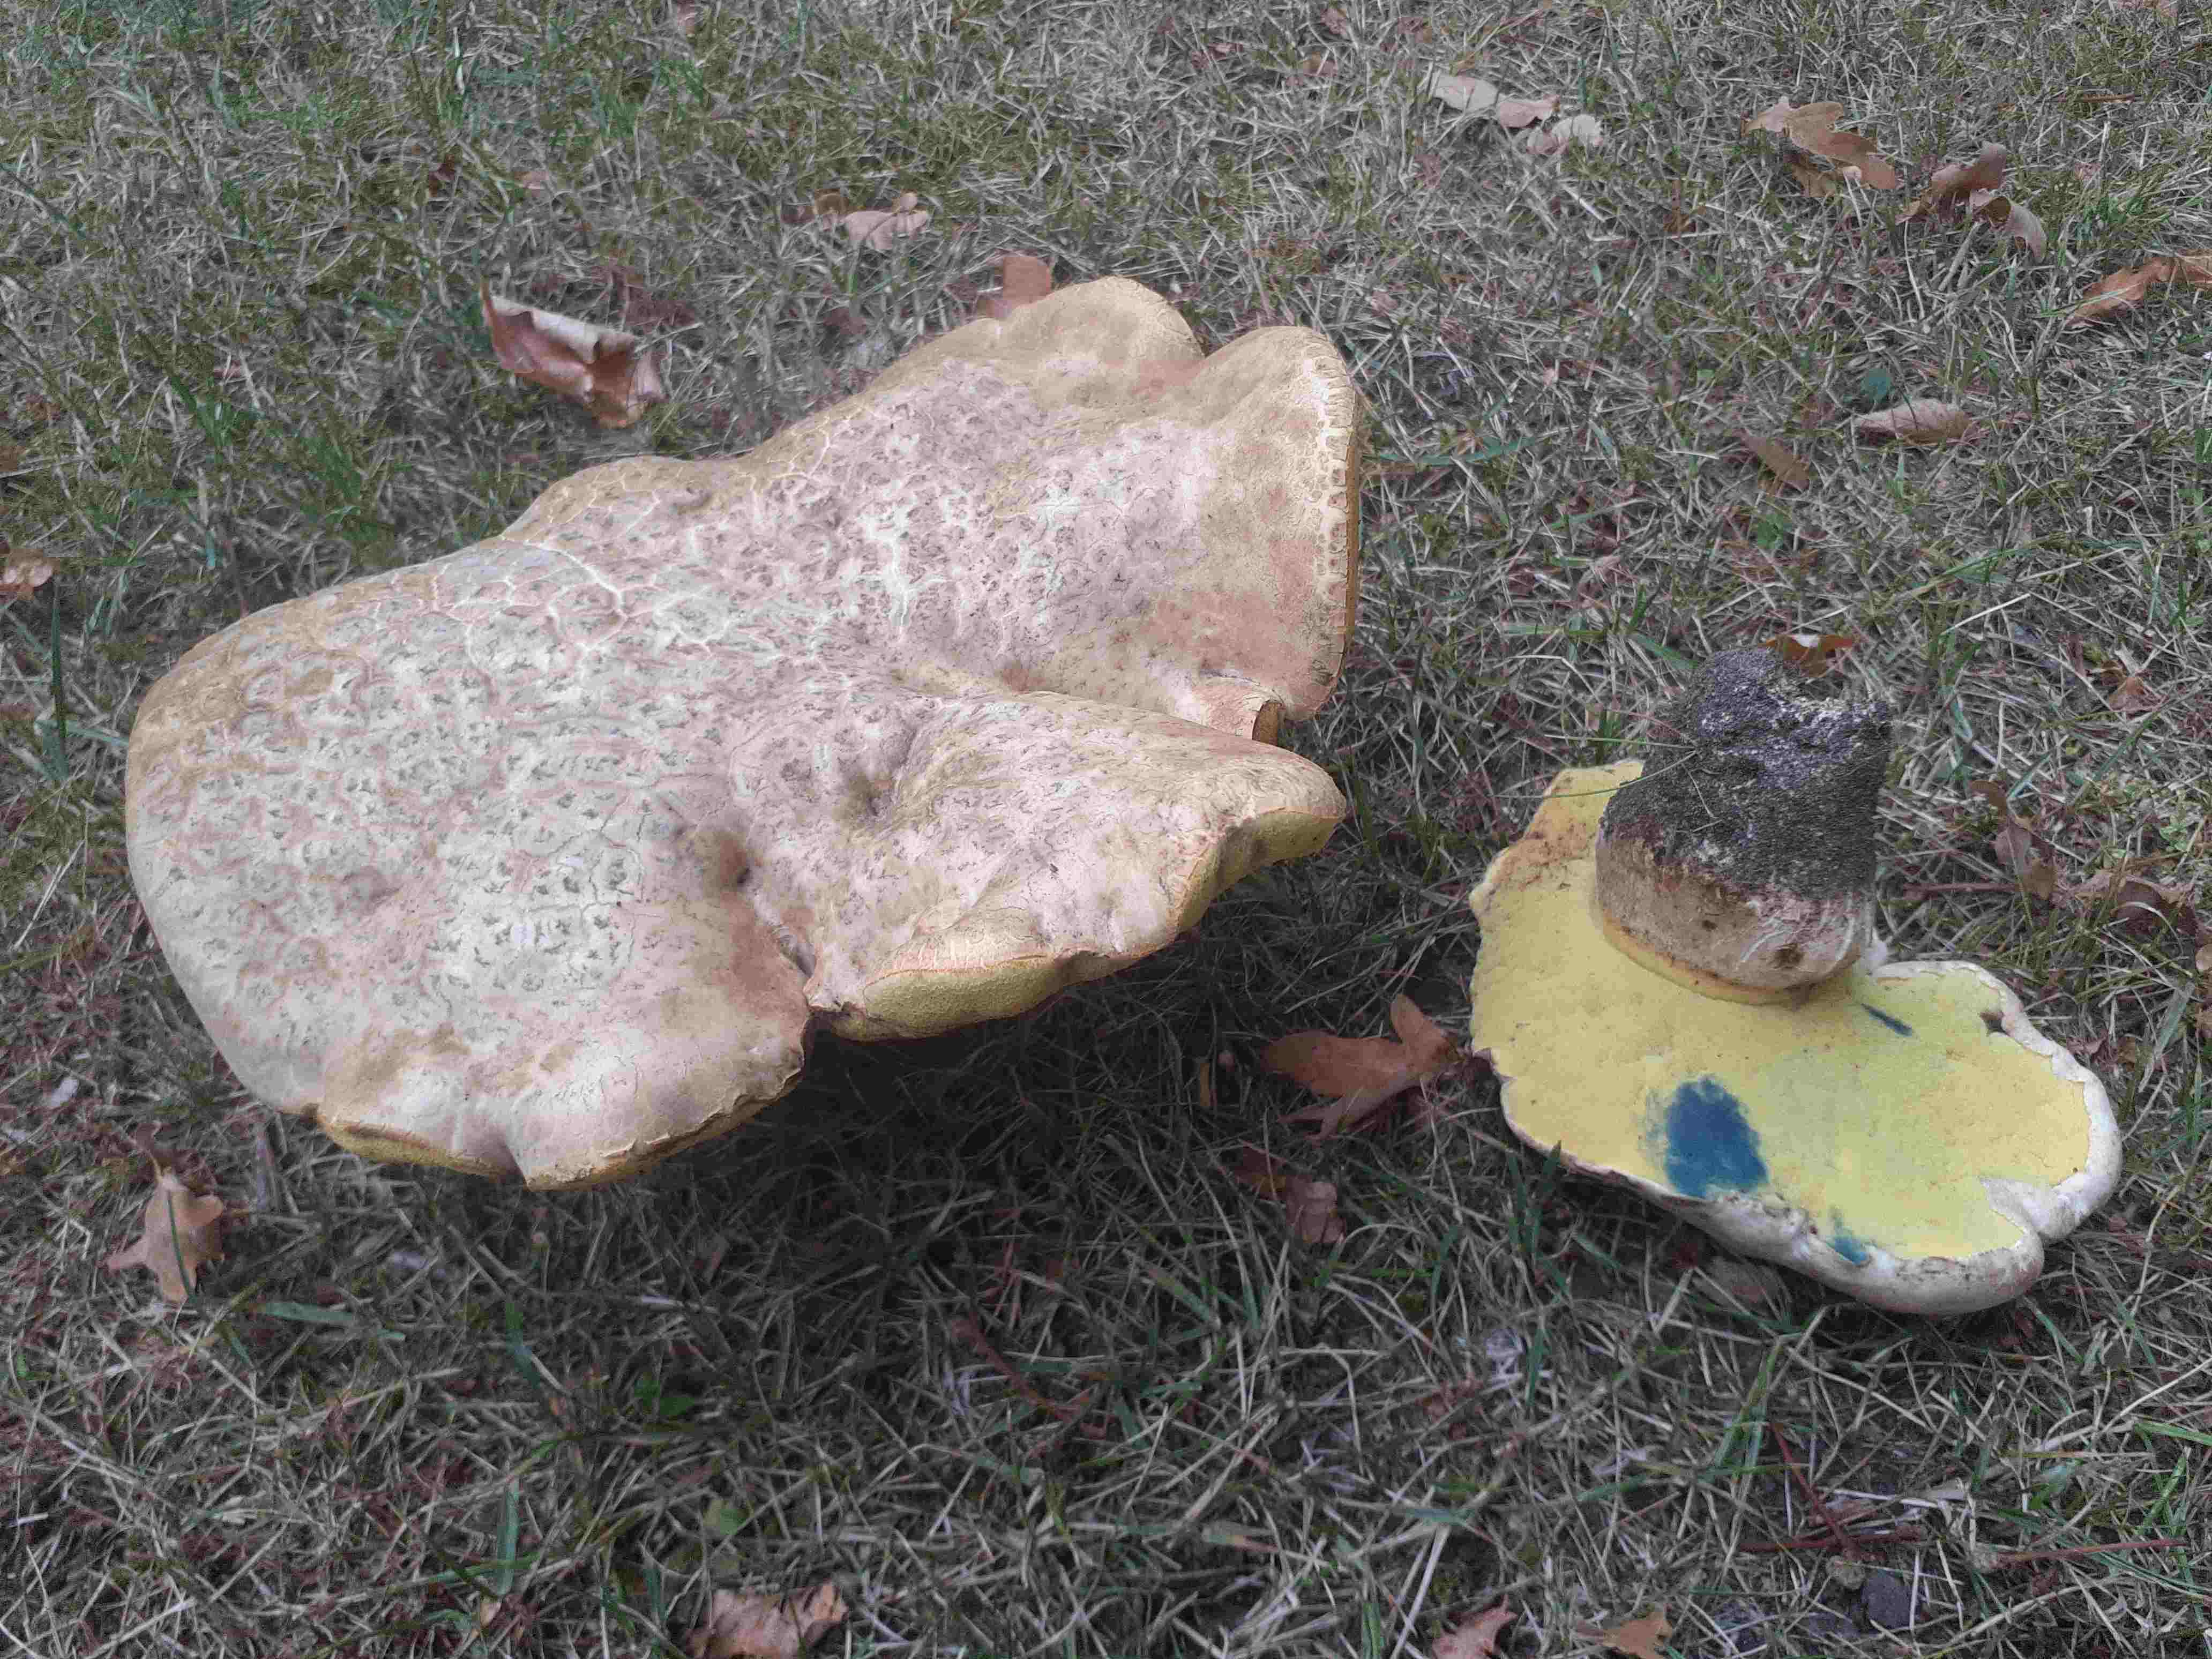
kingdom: Fungi
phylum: Basidiomycota
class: Agaricomycetes
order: Boletales
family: Boletaceae
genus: Caloboletus
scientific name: Caloboletus radicans
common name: rod-rørhat
